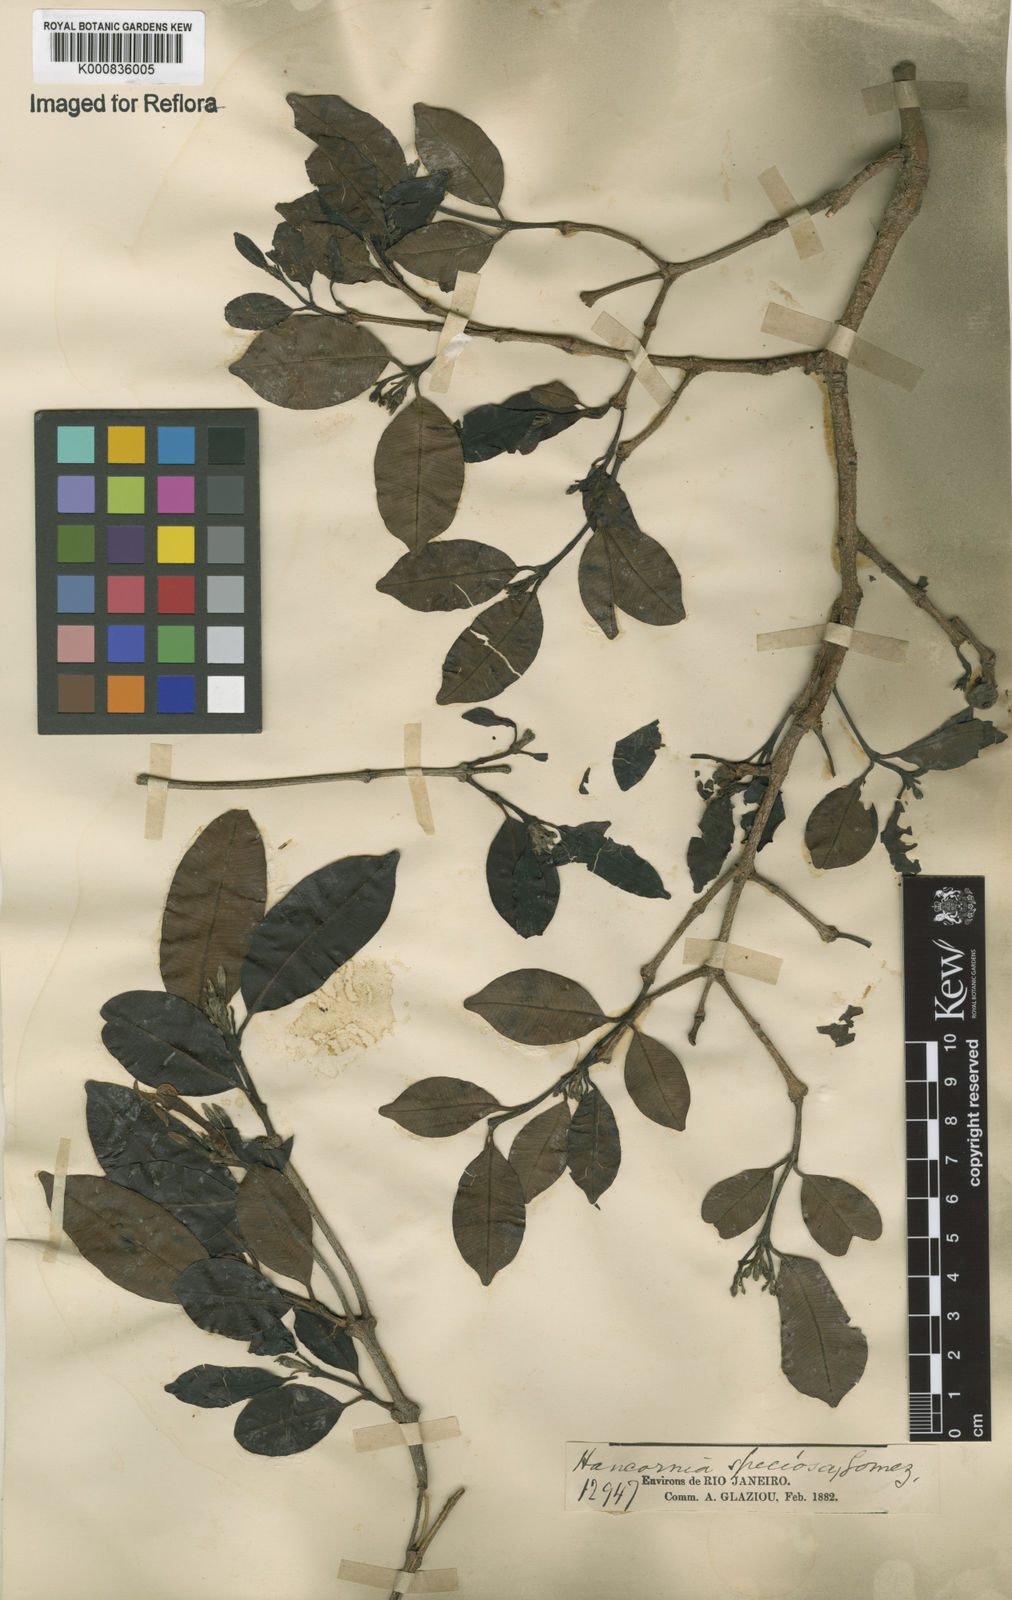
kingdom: Plantae
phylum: Tracheophyta
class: Magnoliopsida
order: Gentianales
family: Apocynaceae
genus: Hancornia
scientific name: Hancornia speciosa
